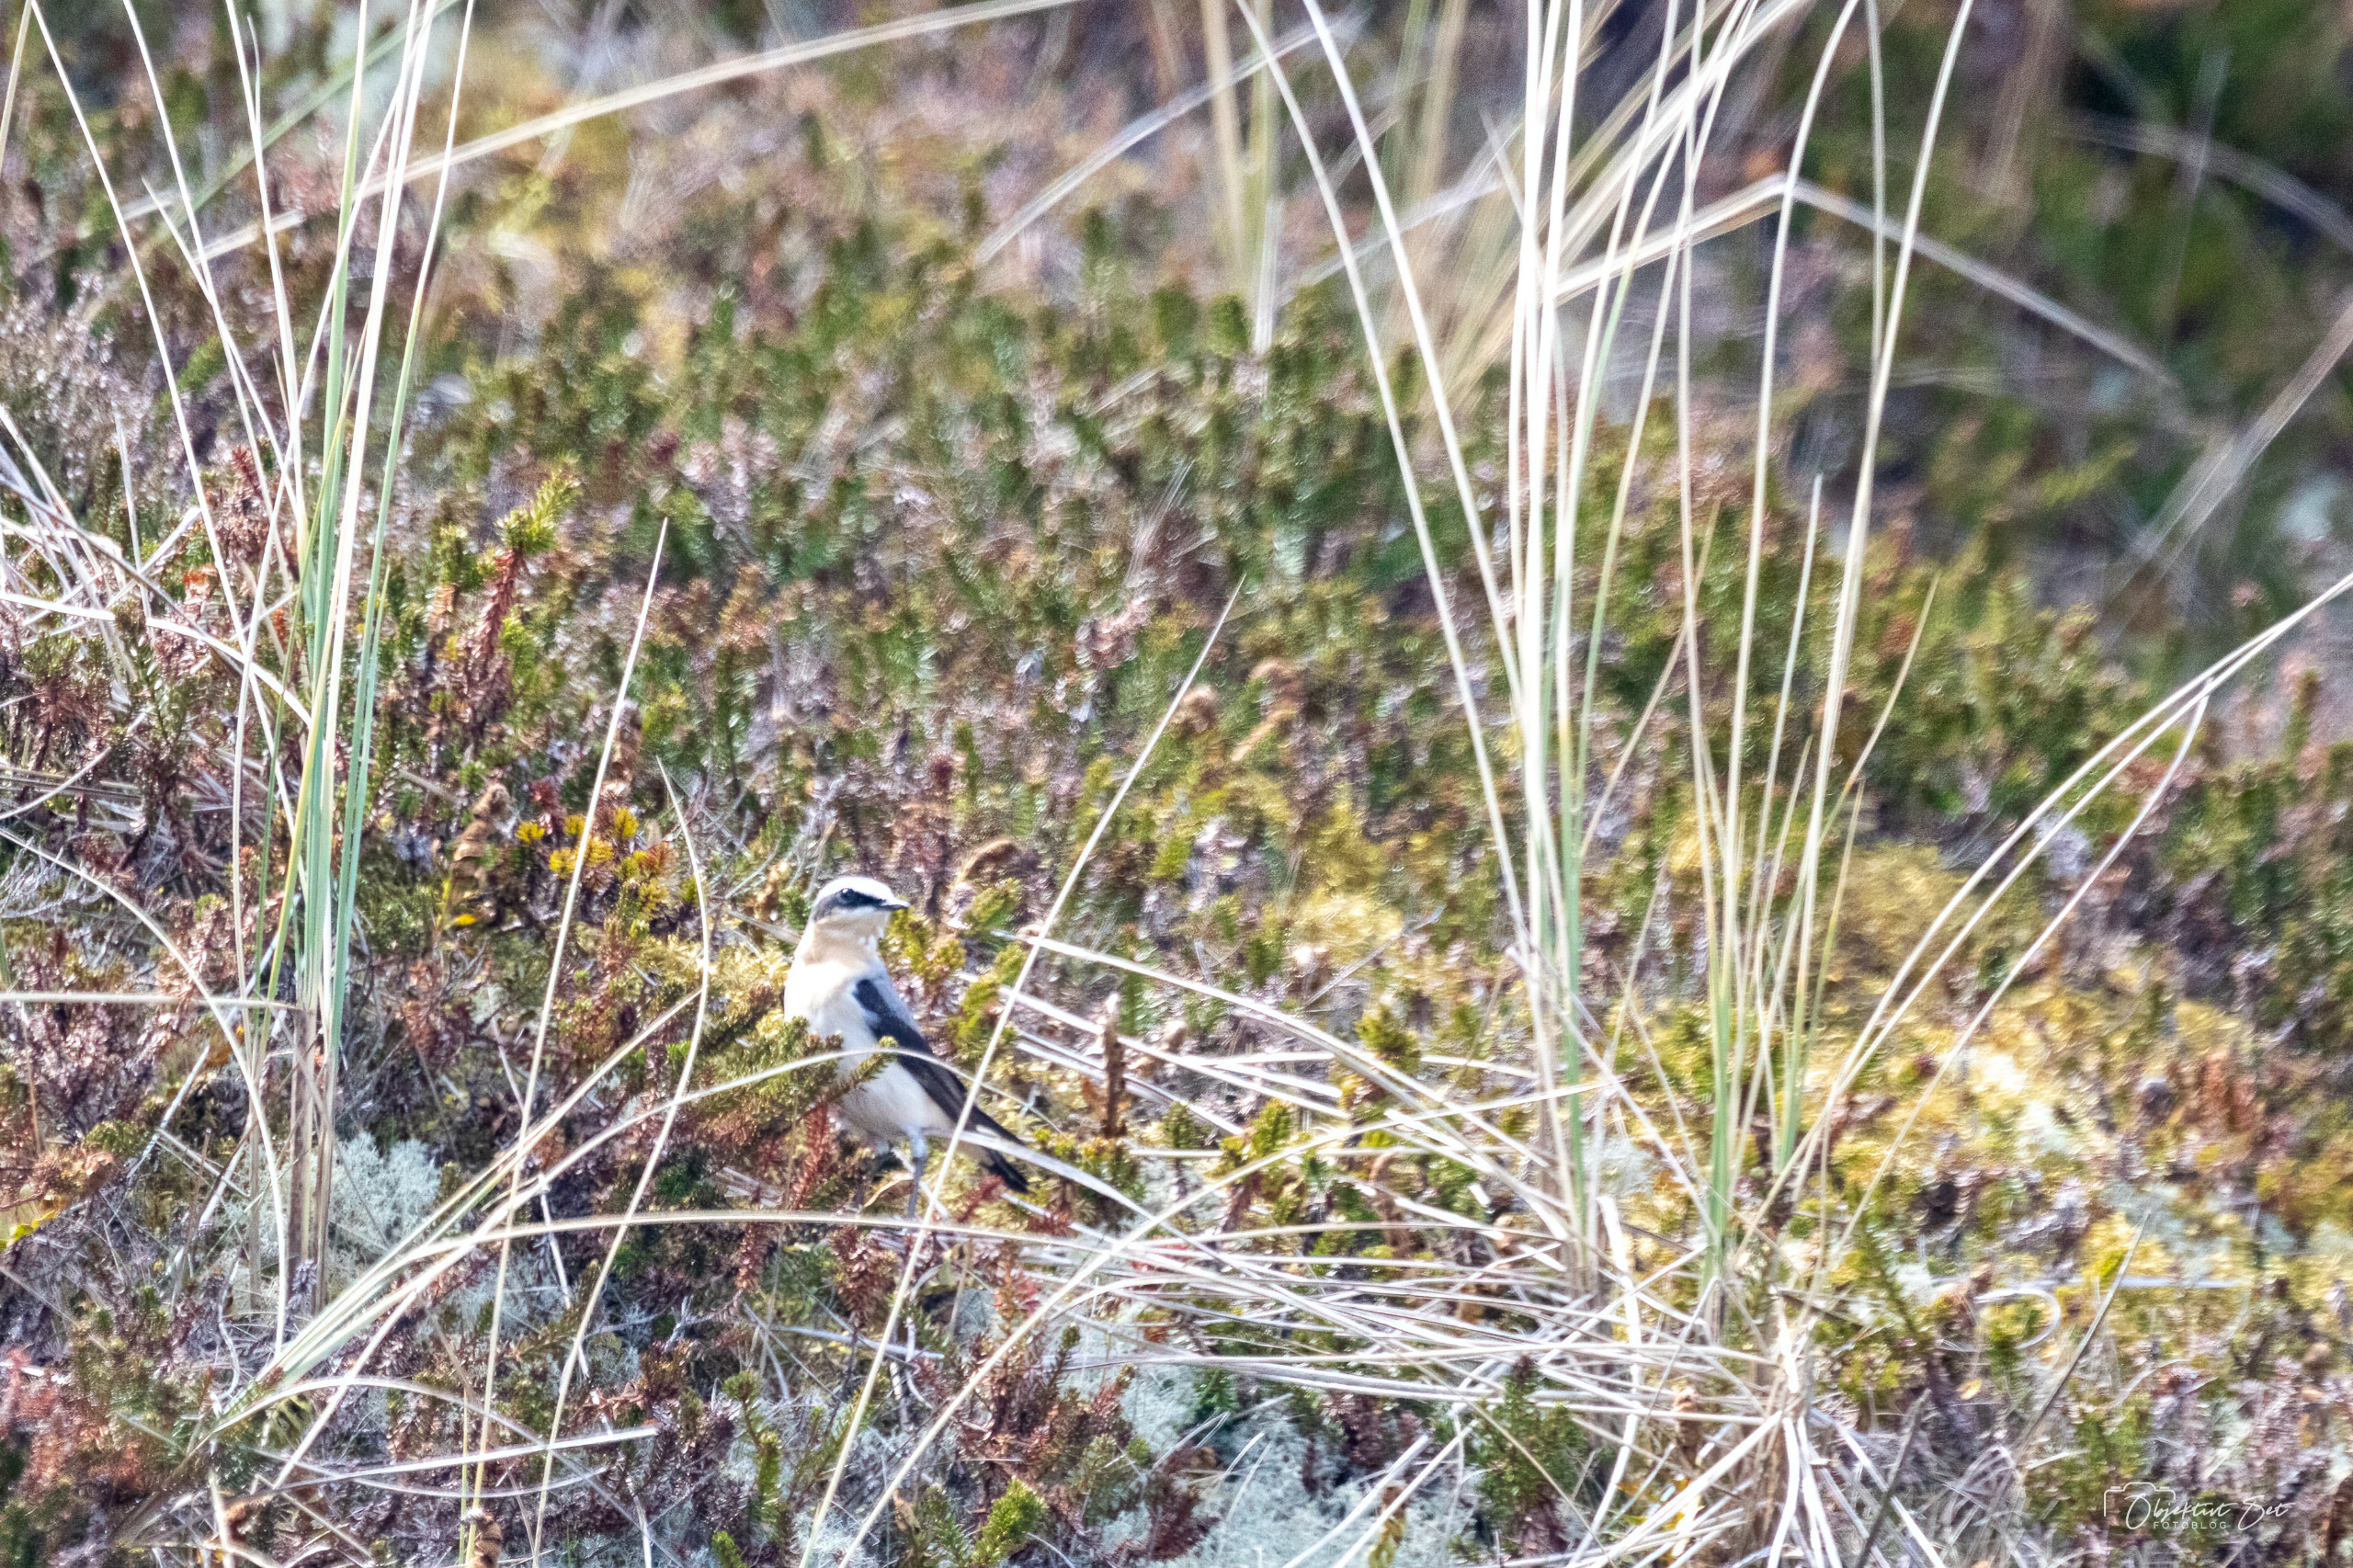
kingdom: Animalia
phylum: Chordata
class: Aves
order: Passeriformes
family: Muscicapidae
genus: Oenanthe
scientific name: Oenanthe oenanthe
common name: Stenpikker
